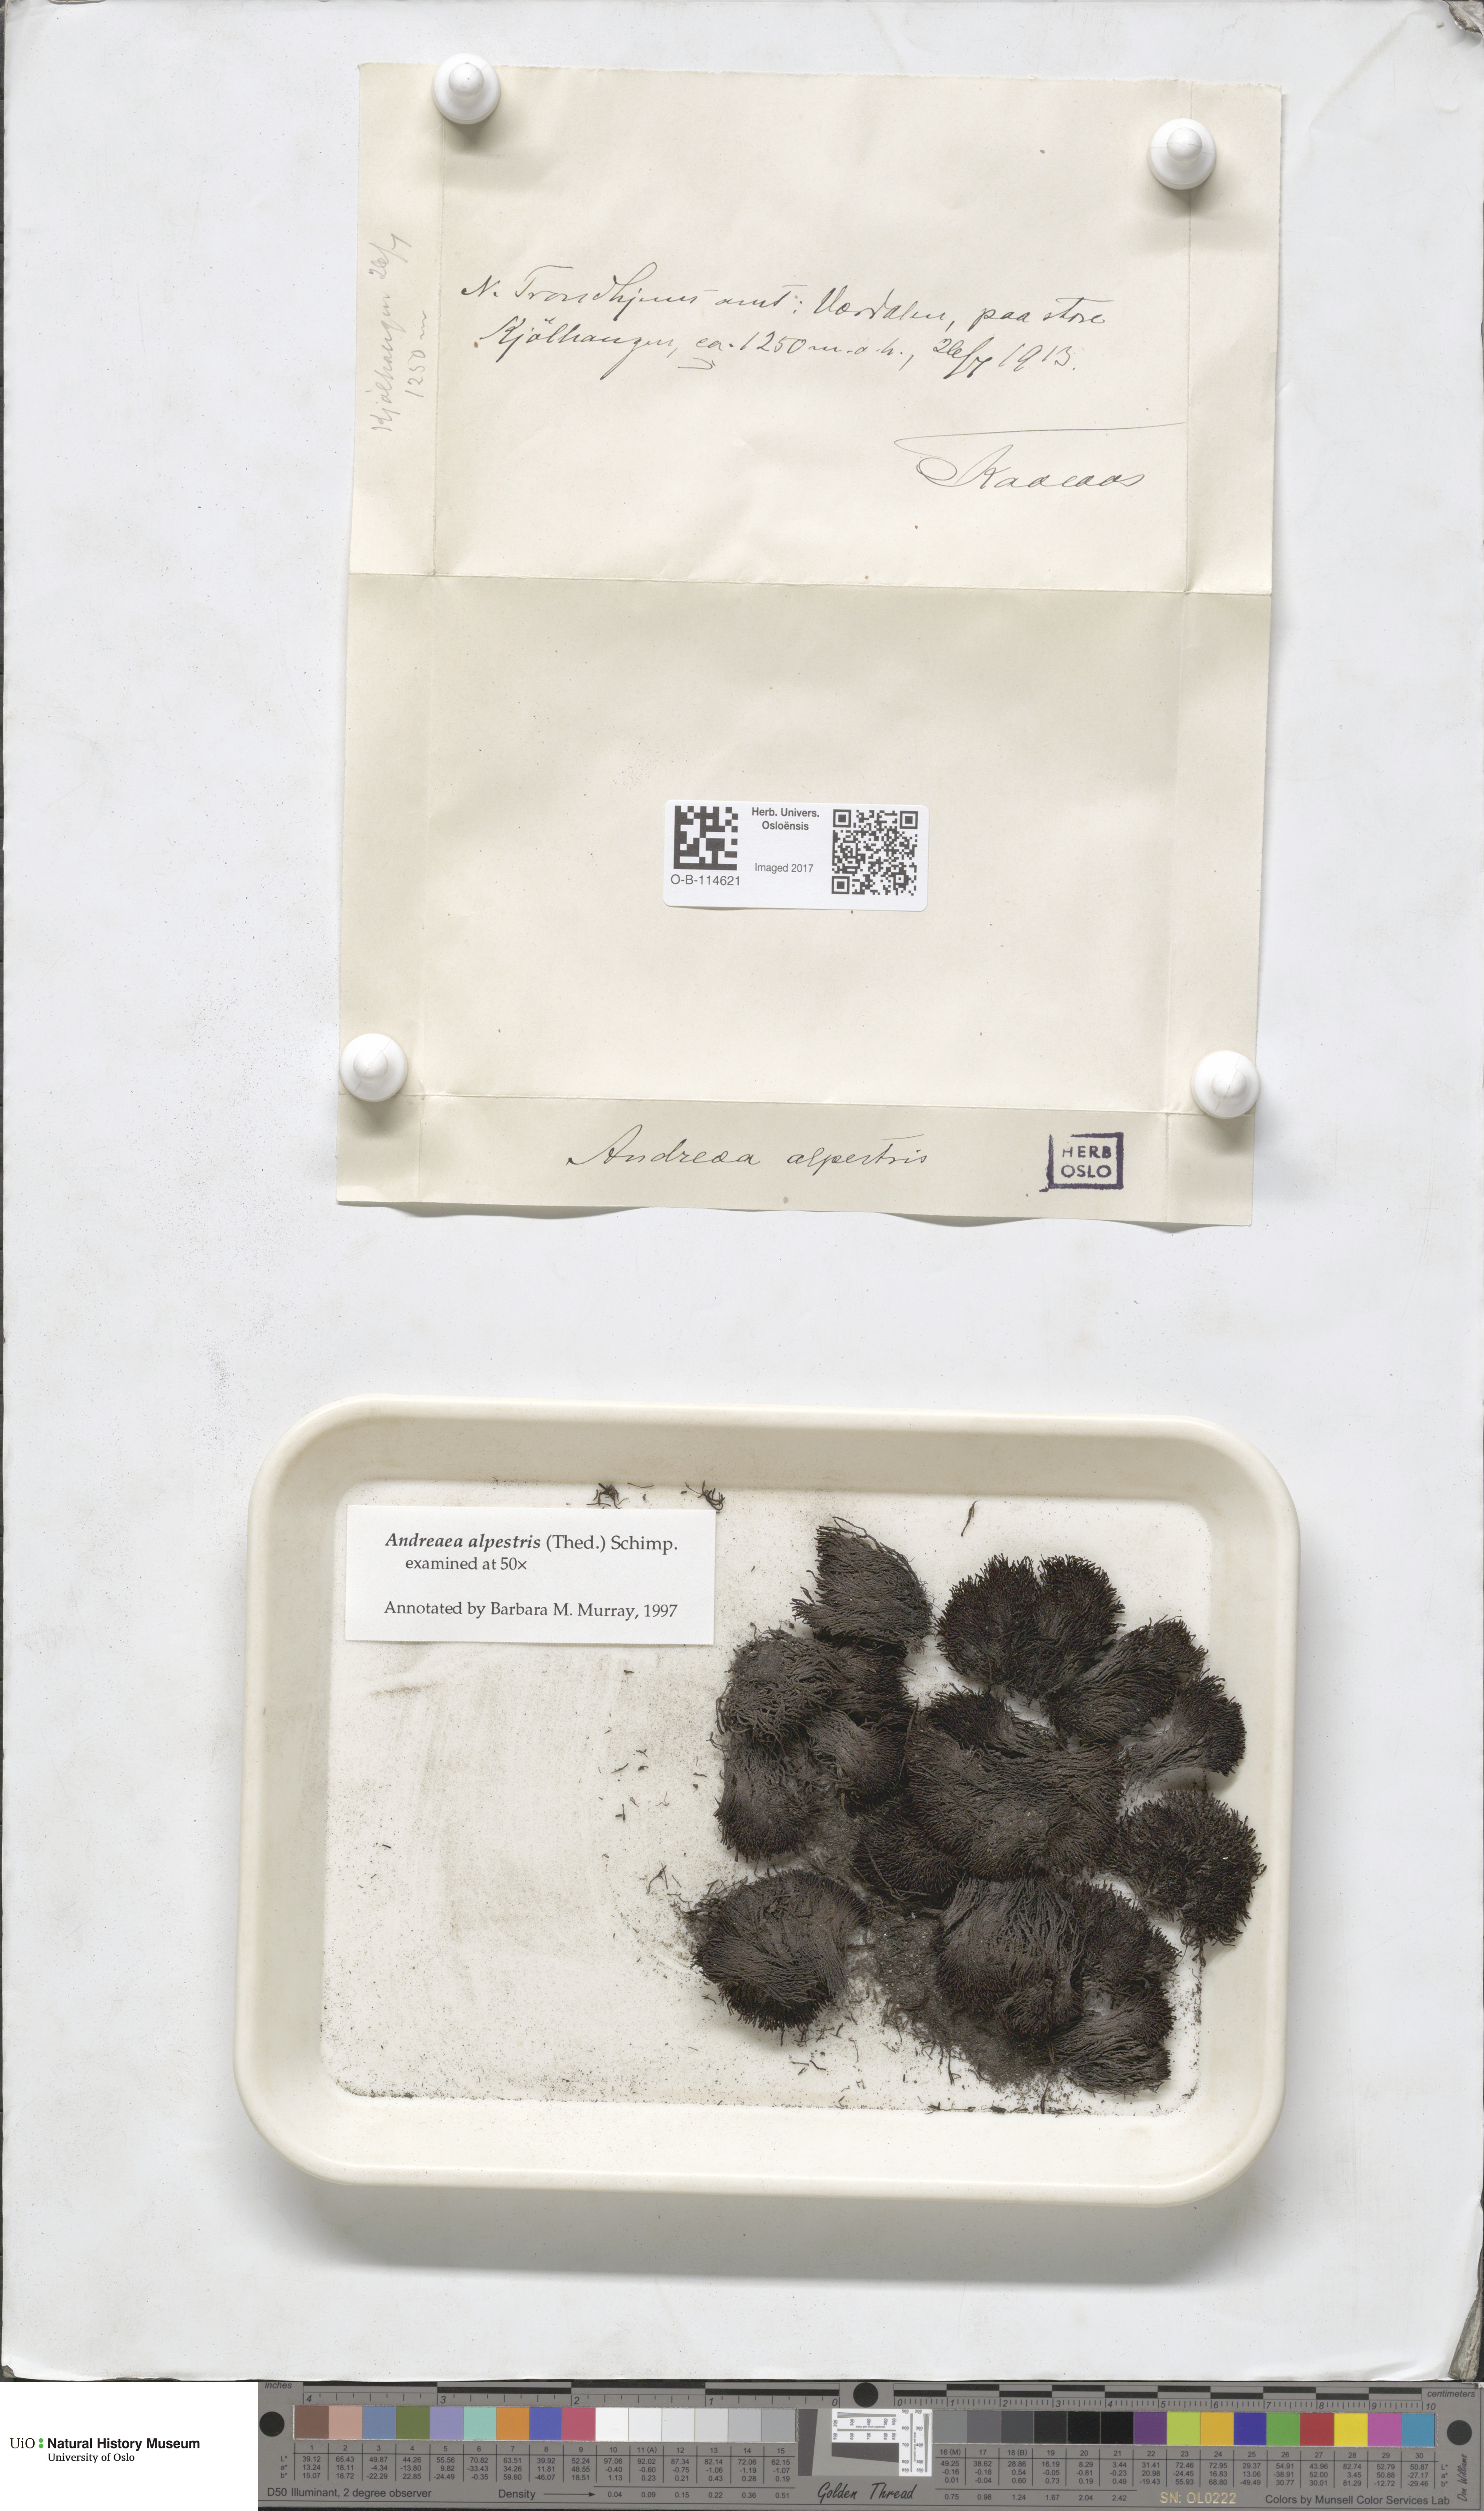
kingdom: Plantae
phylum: Bryophyta
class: Andreaeopsida
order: Andreaeales
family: Andreaeaceae
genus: Andreaea
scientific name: Andreaea alpestris
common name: Slender rock-moss
